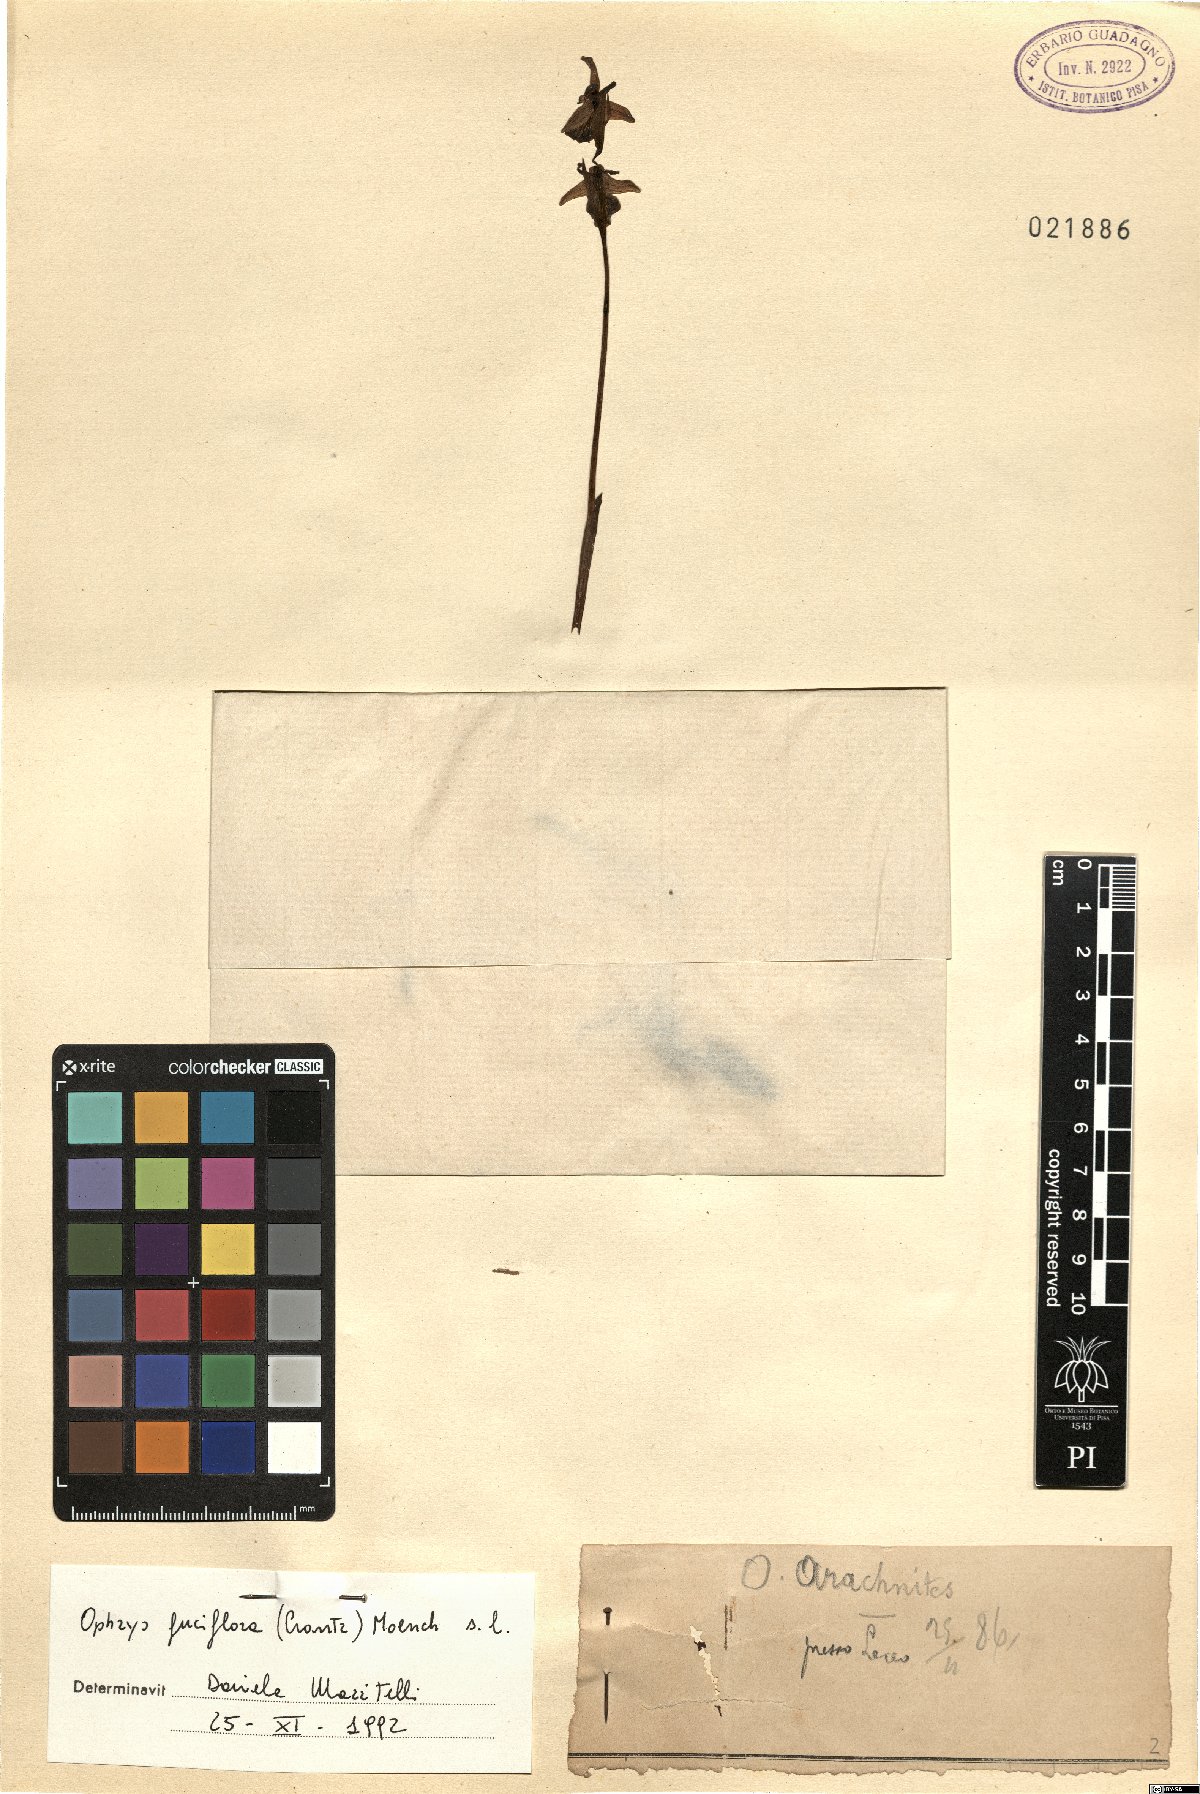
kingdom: Plantae
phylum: Tracheophyta
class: Liliopsida
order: Asparagales
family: Orchidaceae
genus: Ophrys
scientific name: Ophrys holosericea
